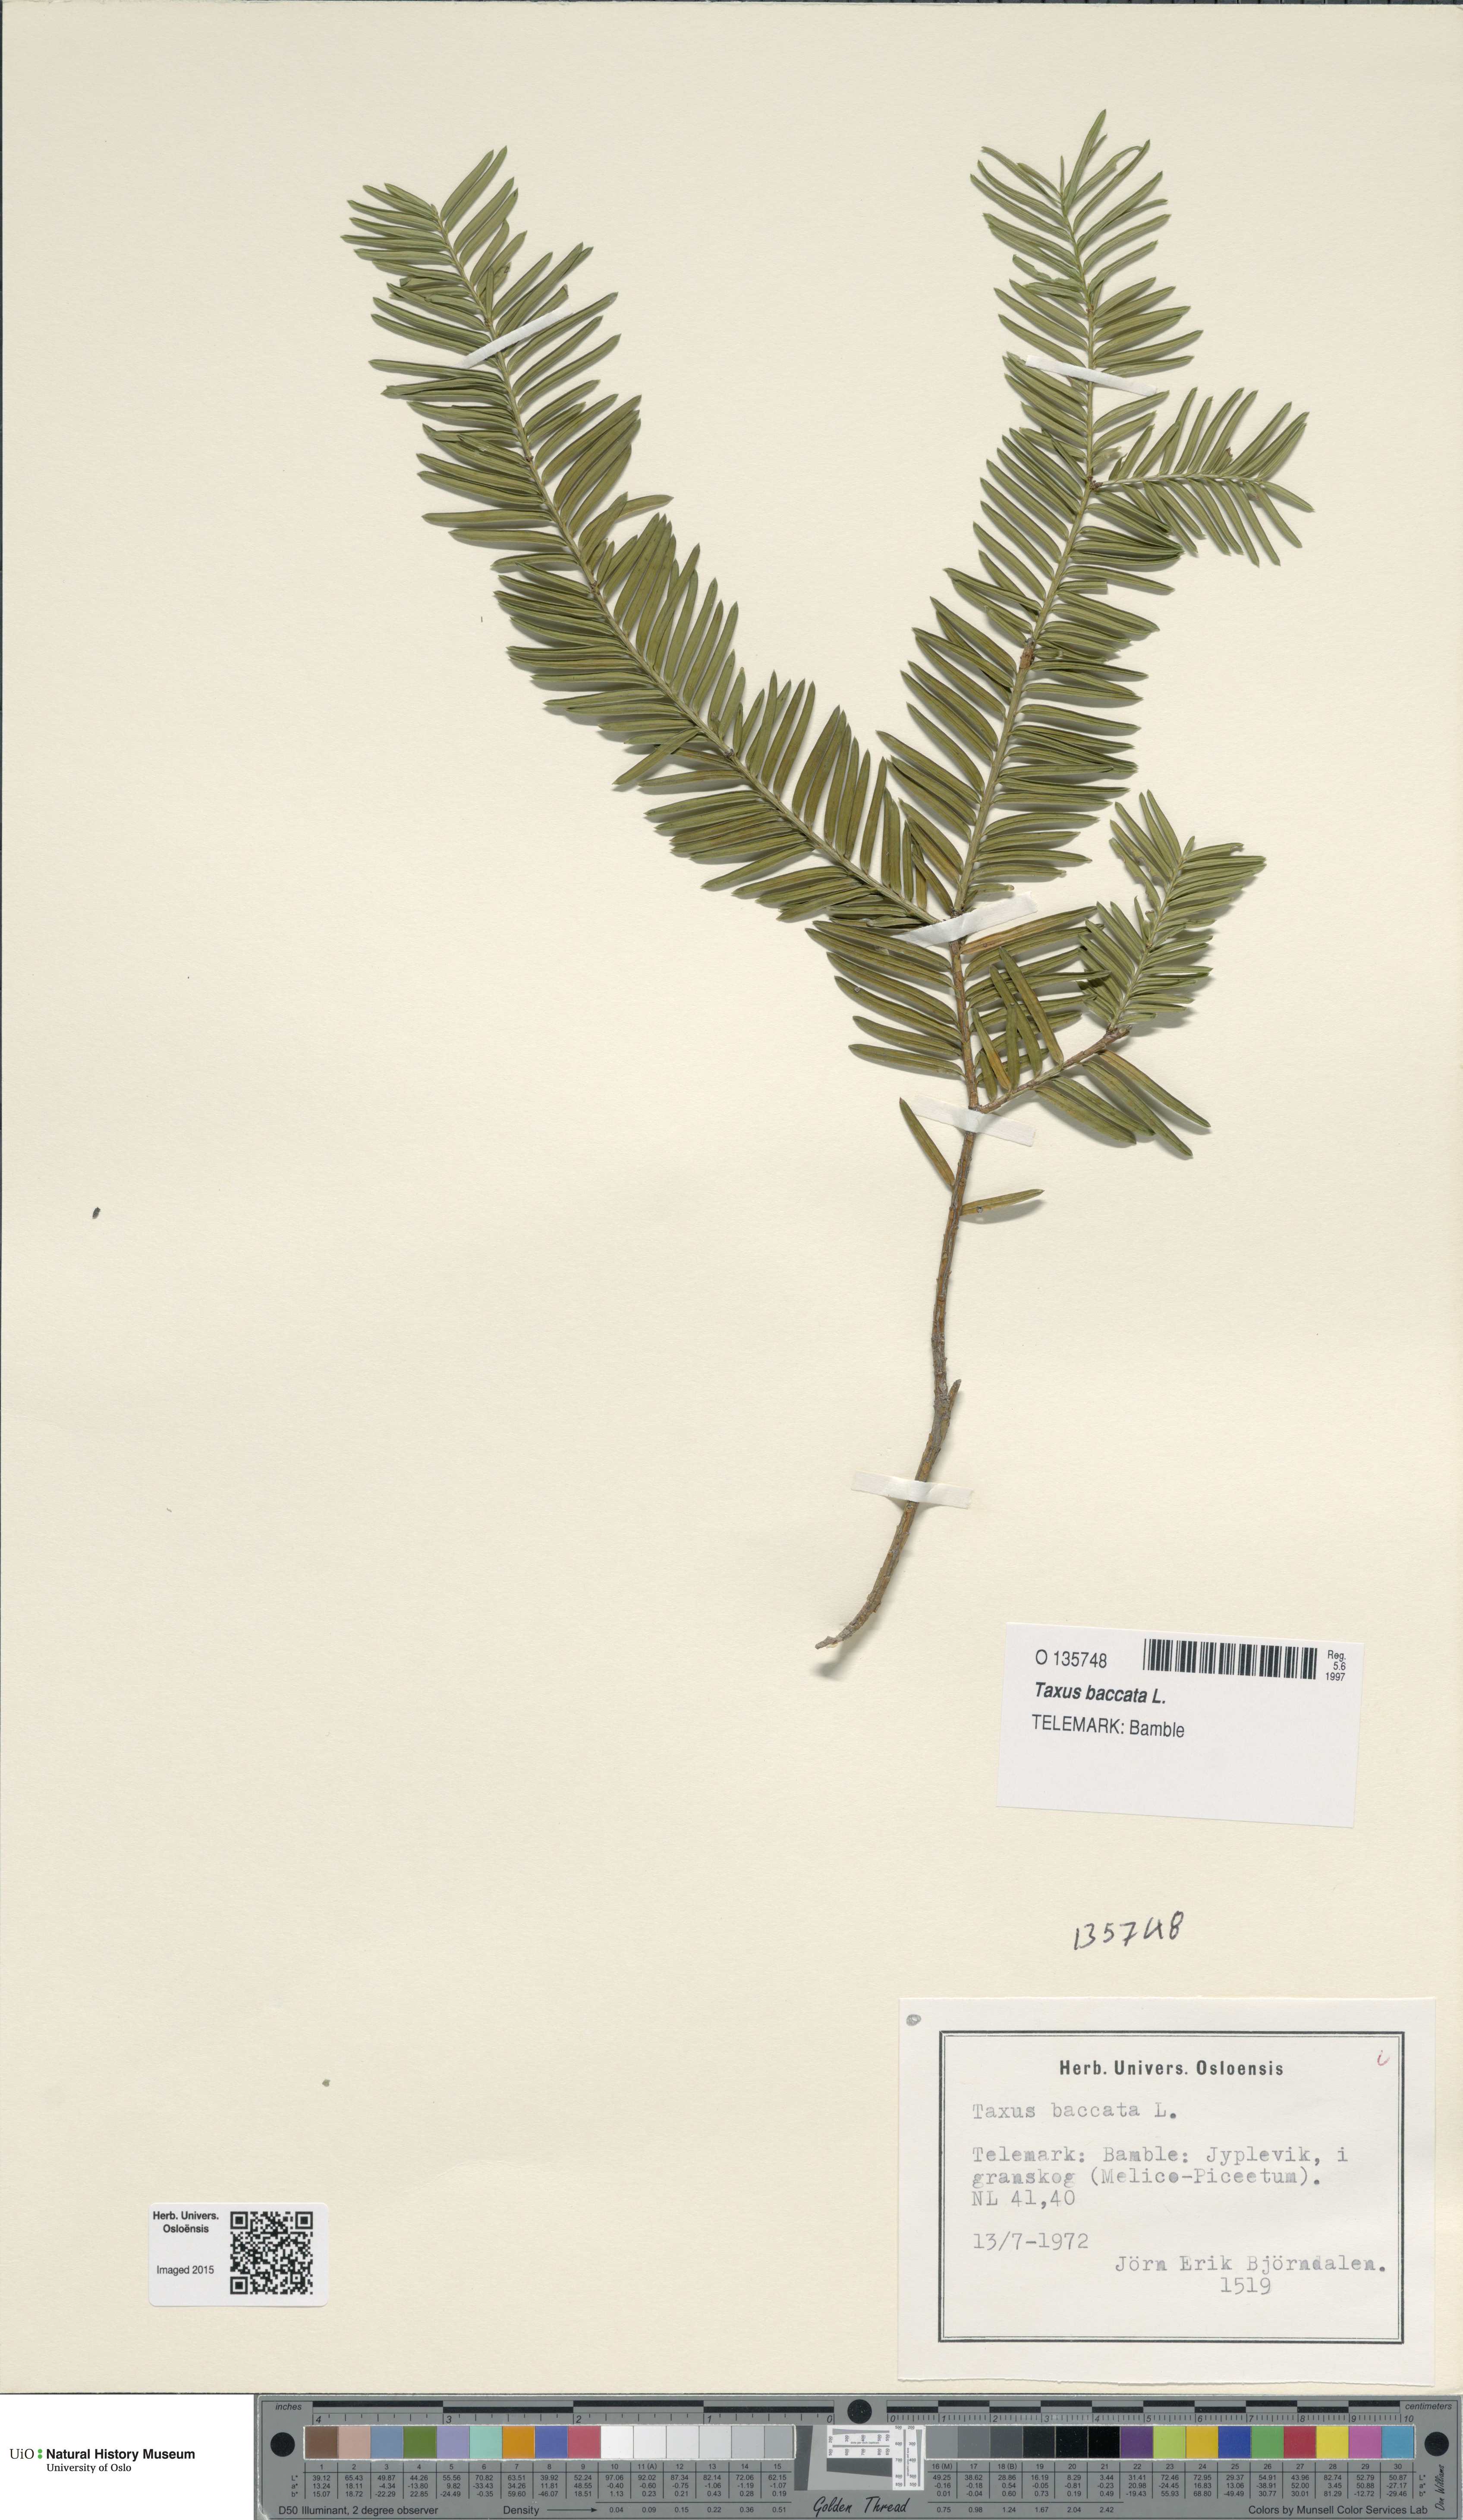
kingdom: Plantae
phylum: Tracheophyta
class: Pinopsida
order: Pinales
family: Taxaceae
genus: Taxus
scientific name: Taxus baccata
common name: Yew
